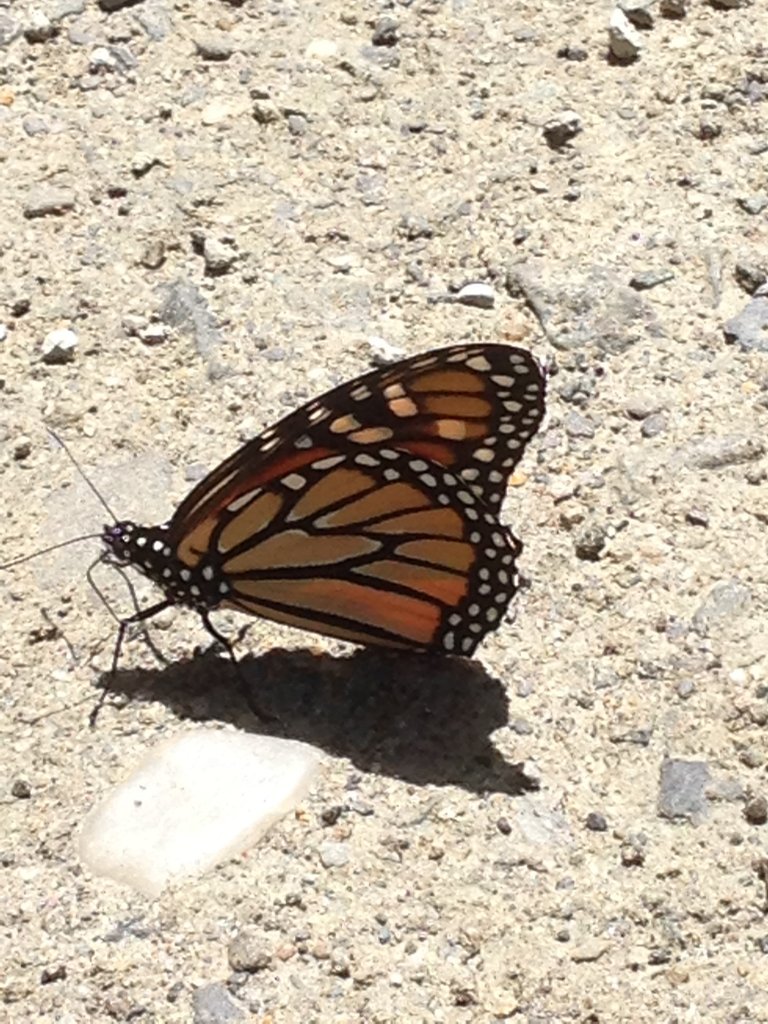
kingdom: Animalia
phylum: Arthropoda
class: Insecta
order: Lepidoptera
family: Nymphalidae
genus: Danaus
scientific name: Danaus plexippus
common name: Monarch
